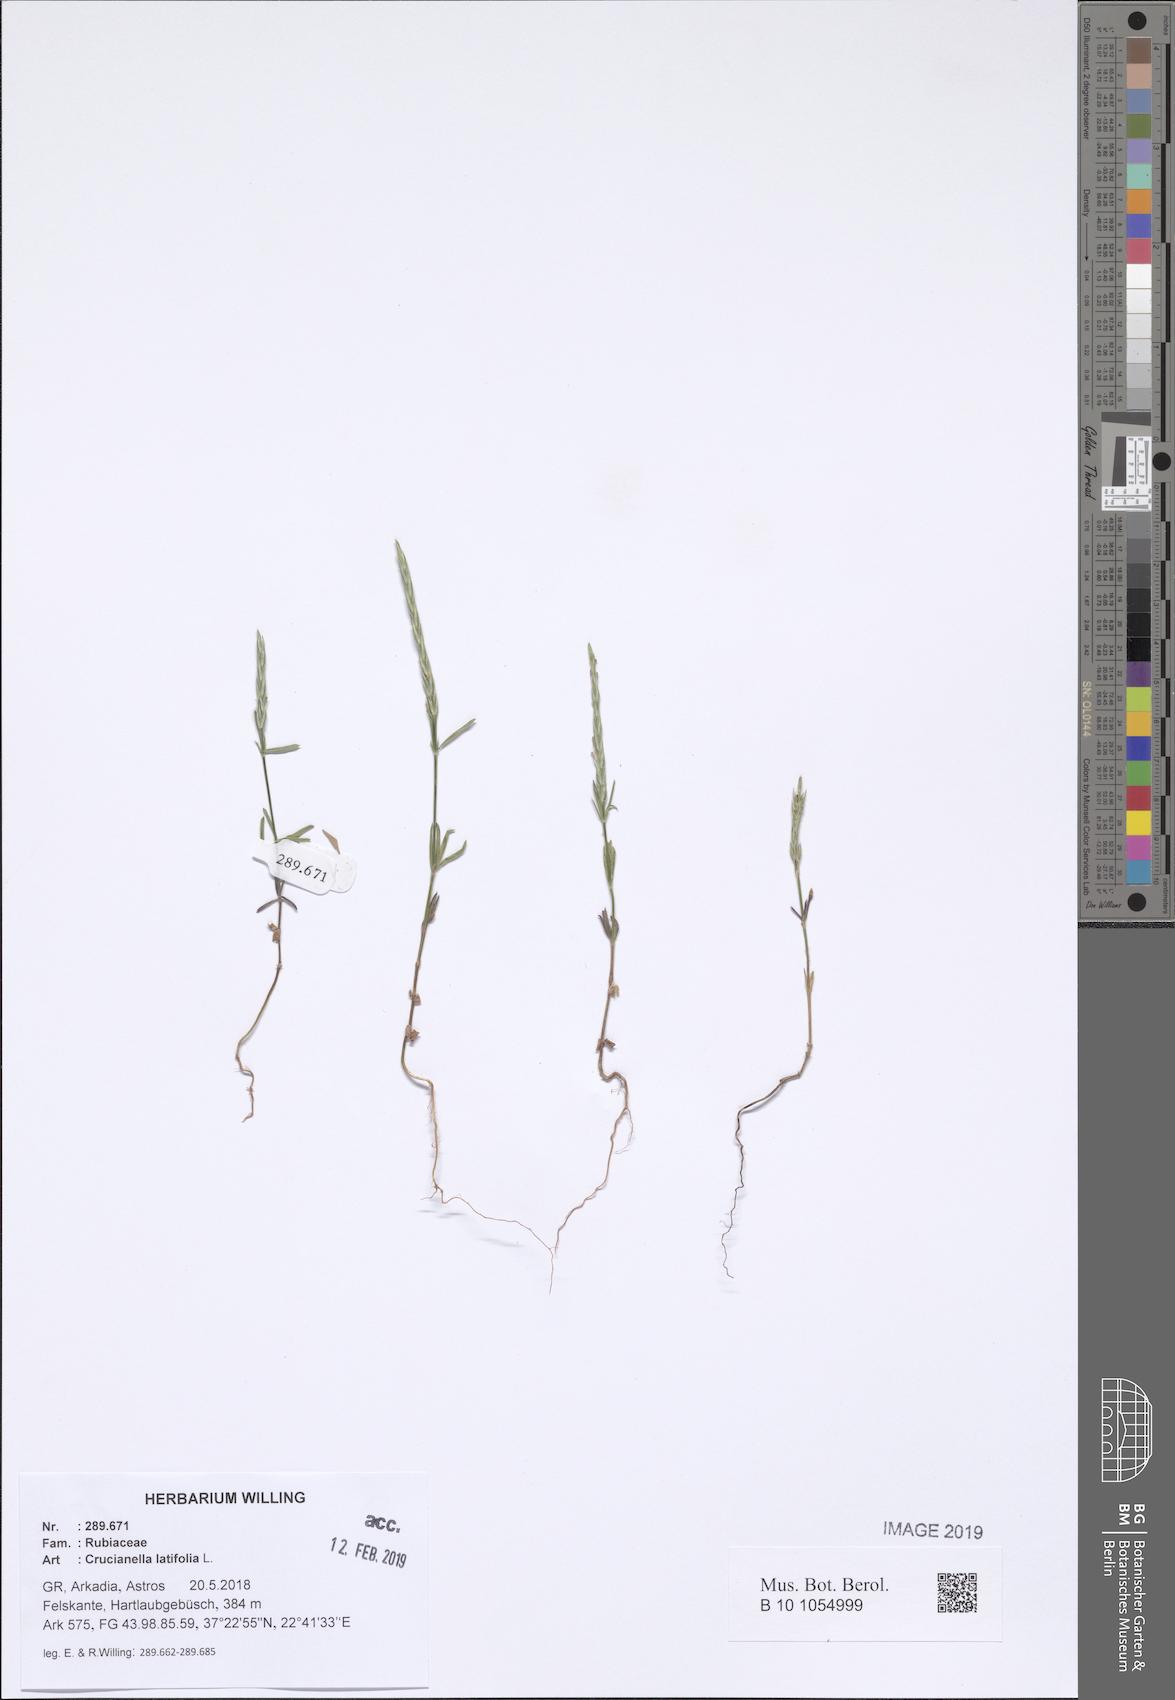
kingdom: Plantae
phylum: Tracheophyta
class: Magnoliopsida
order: Gentianales
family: Rubiaceae
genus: Crucianella
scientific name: Crucianella latifolia
